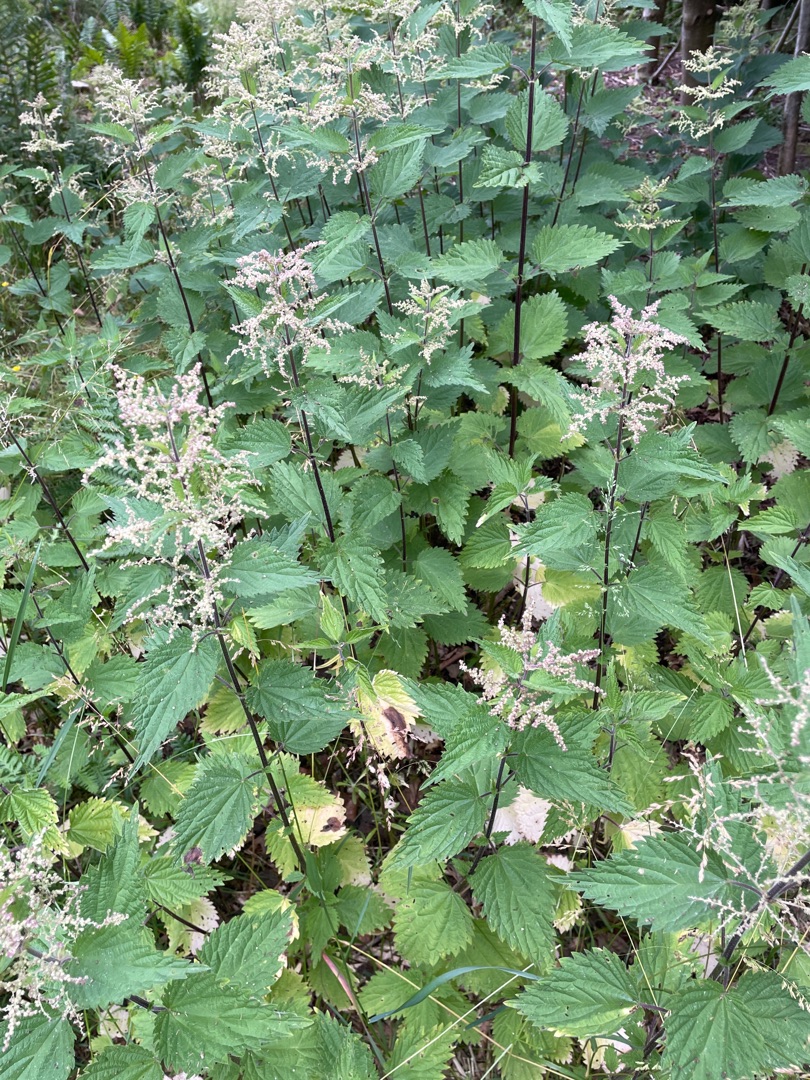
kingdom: Plantae
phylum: Tracheophyta
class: Magnoliopsida
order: Rosales
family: Urticaceae
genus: Urtica
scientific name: Urtica dioica
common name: Stor nælde
